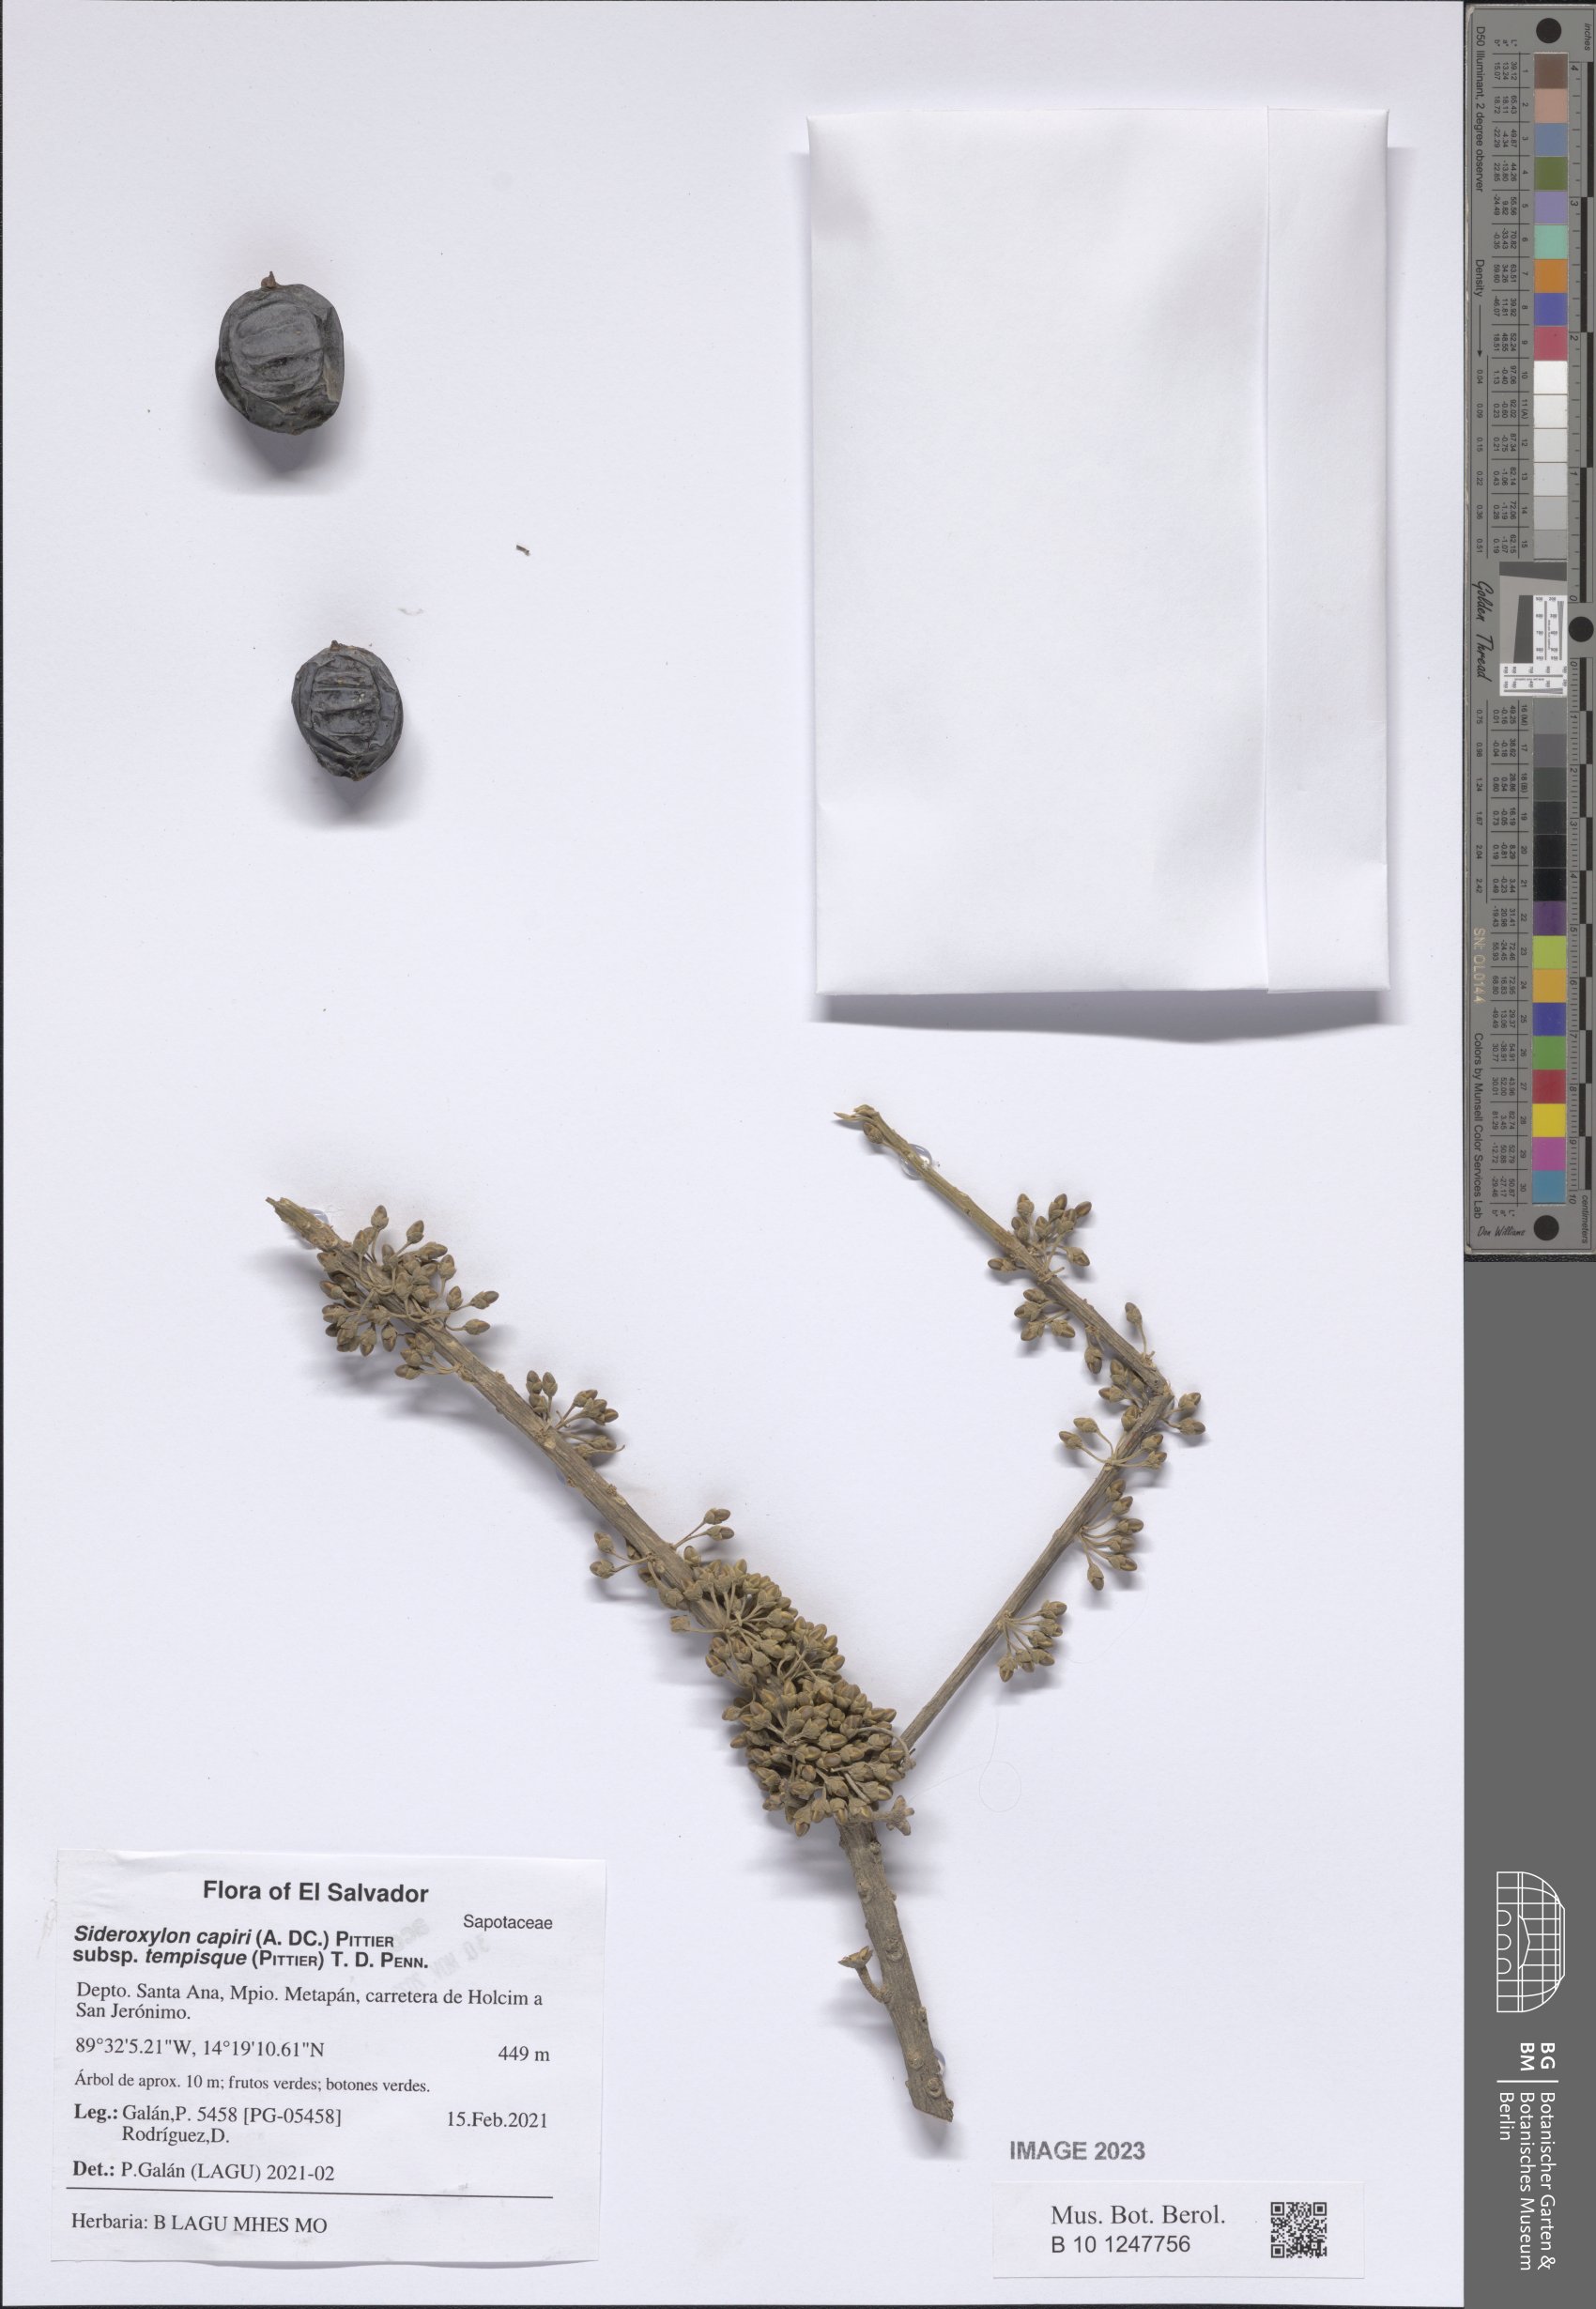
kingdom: Plantae
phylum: Tracheophyta
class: Magnoliopsida
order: Ericales
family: Sapotaceae
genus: Sideroxylon
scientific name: Sideroxylon capiri
